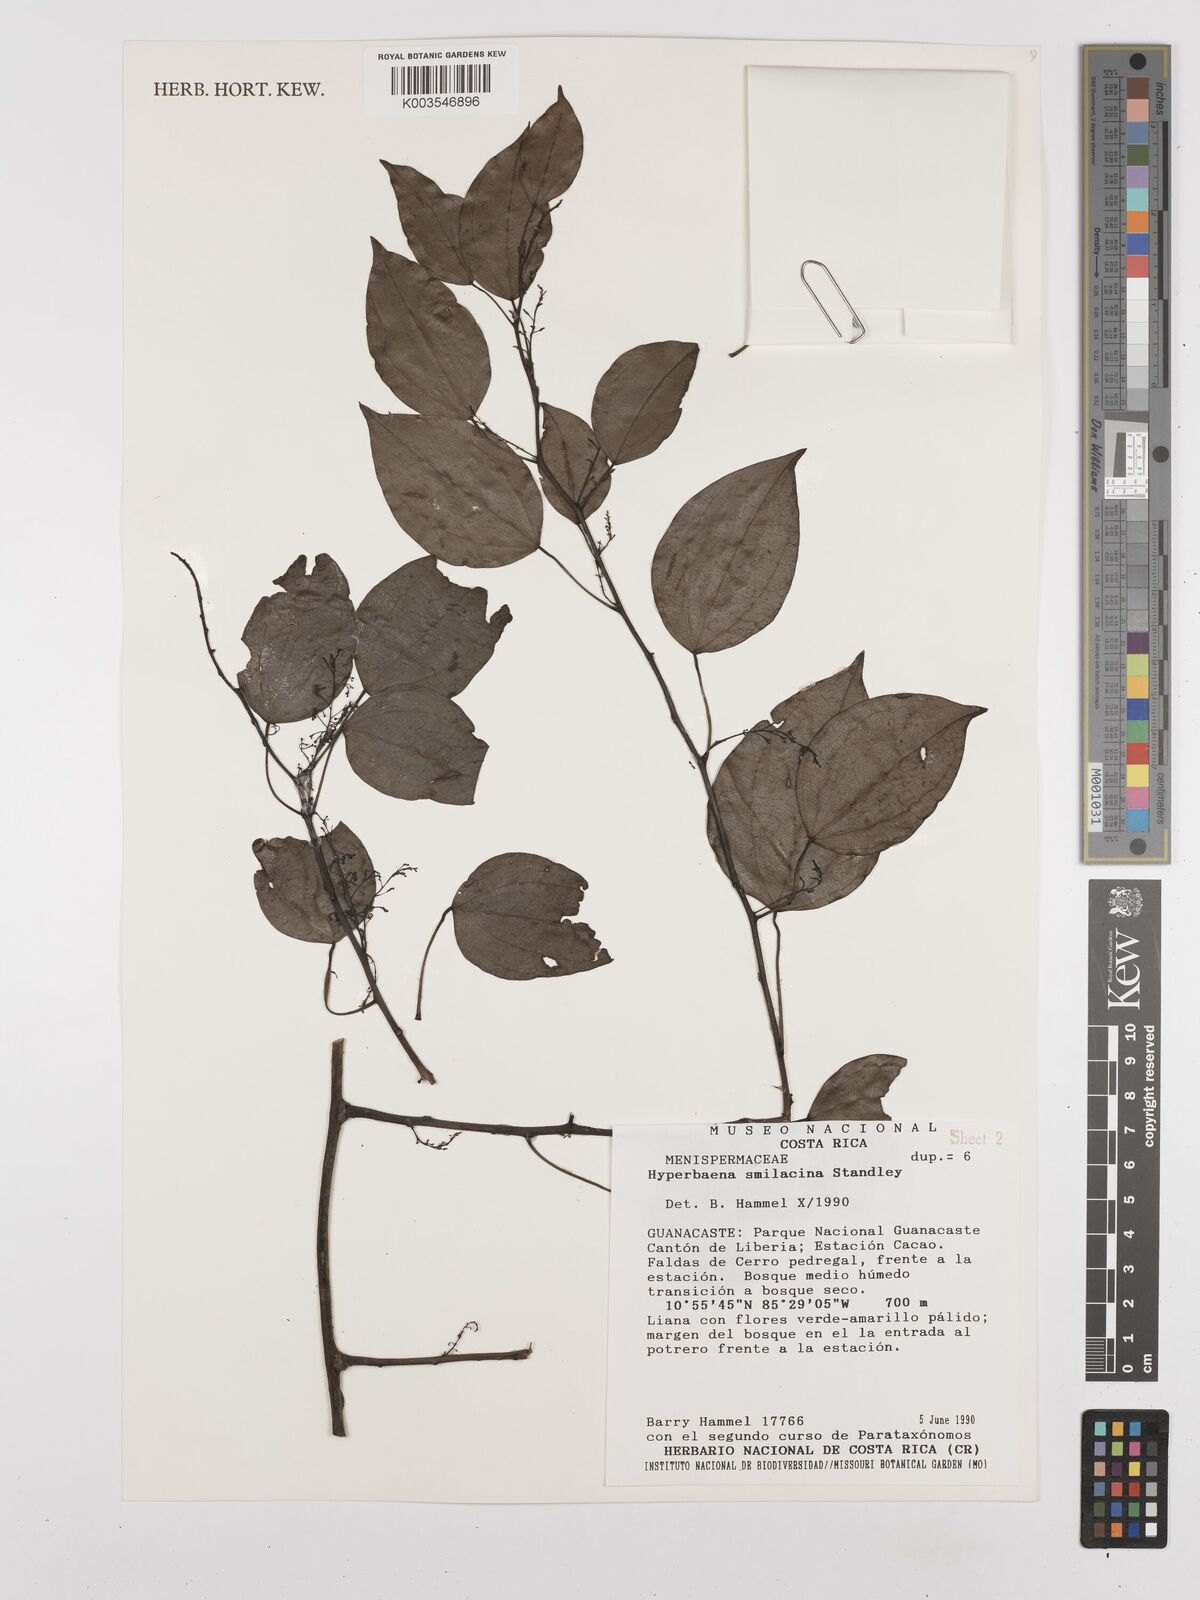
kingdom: Plantae
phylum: Tracheophyta
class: Magnoliopsida
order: Ranunculales
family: Menispermaceae
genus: Hyperbaena
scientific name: Hyperbaena smilacina
